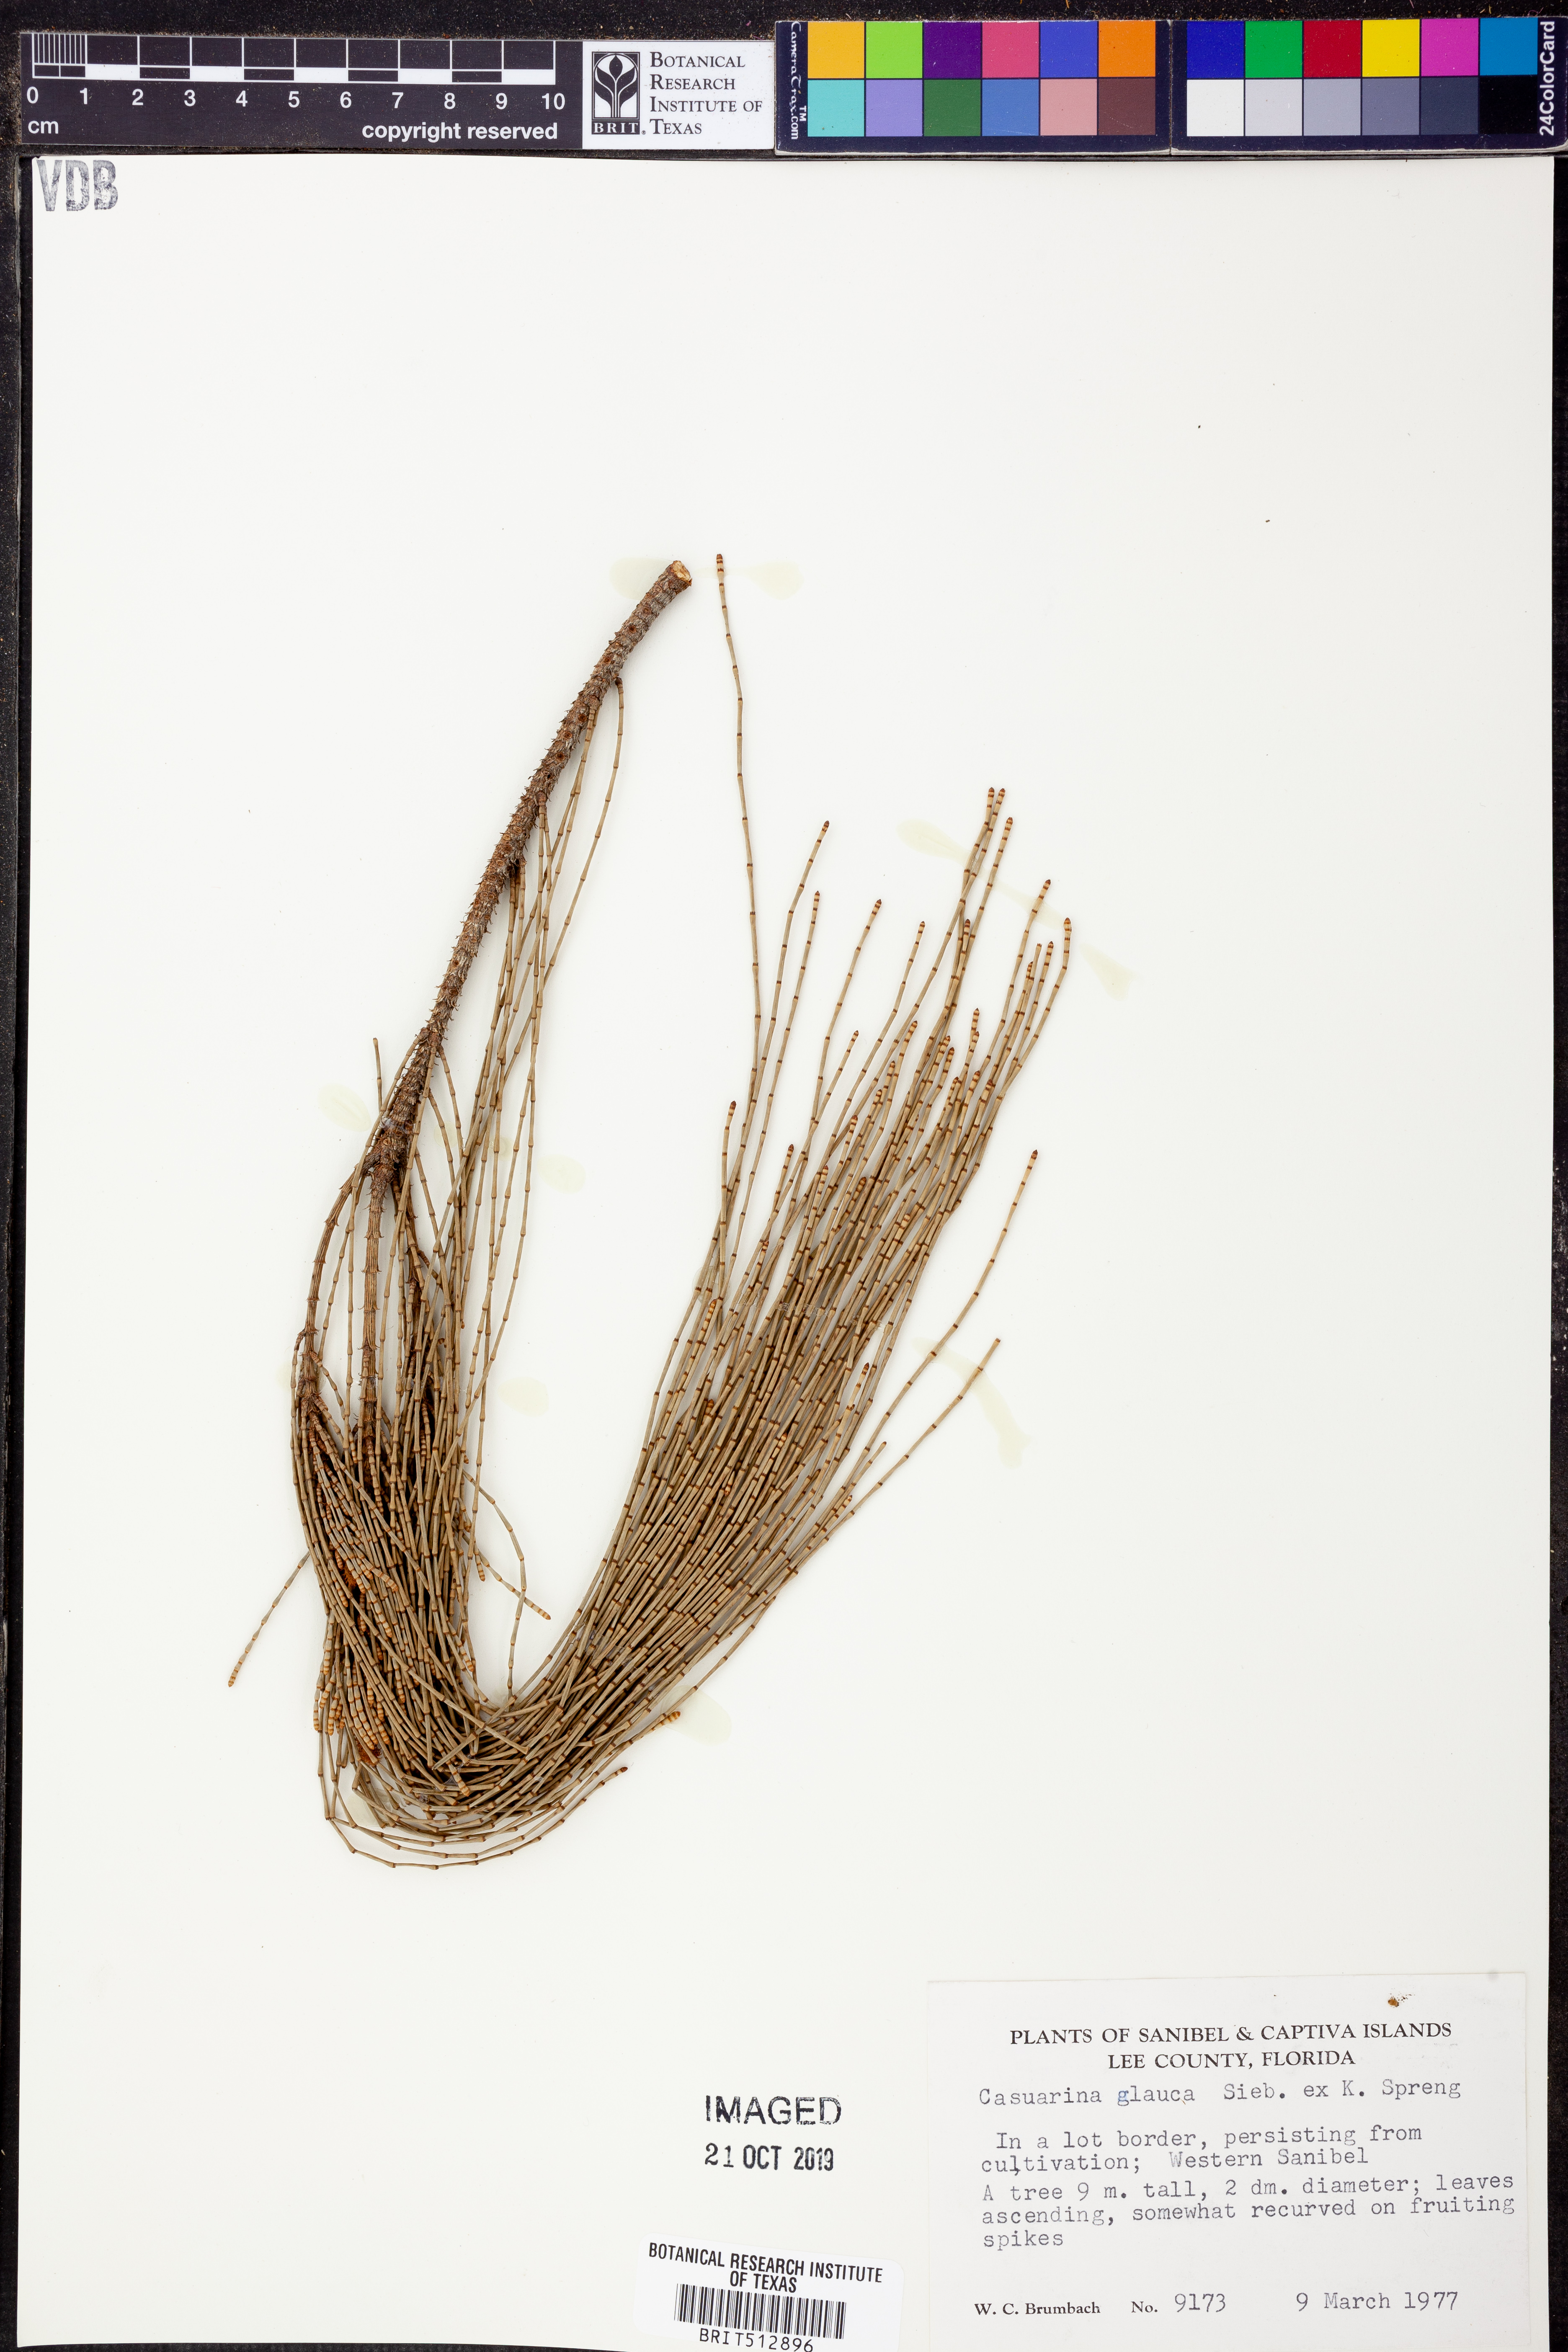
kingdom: Plantae
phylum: Tracheophyta
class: Magnoliopsida
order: Fagales
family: Casuarinaceae
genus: Casuarina
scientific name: Casuarina glauca
